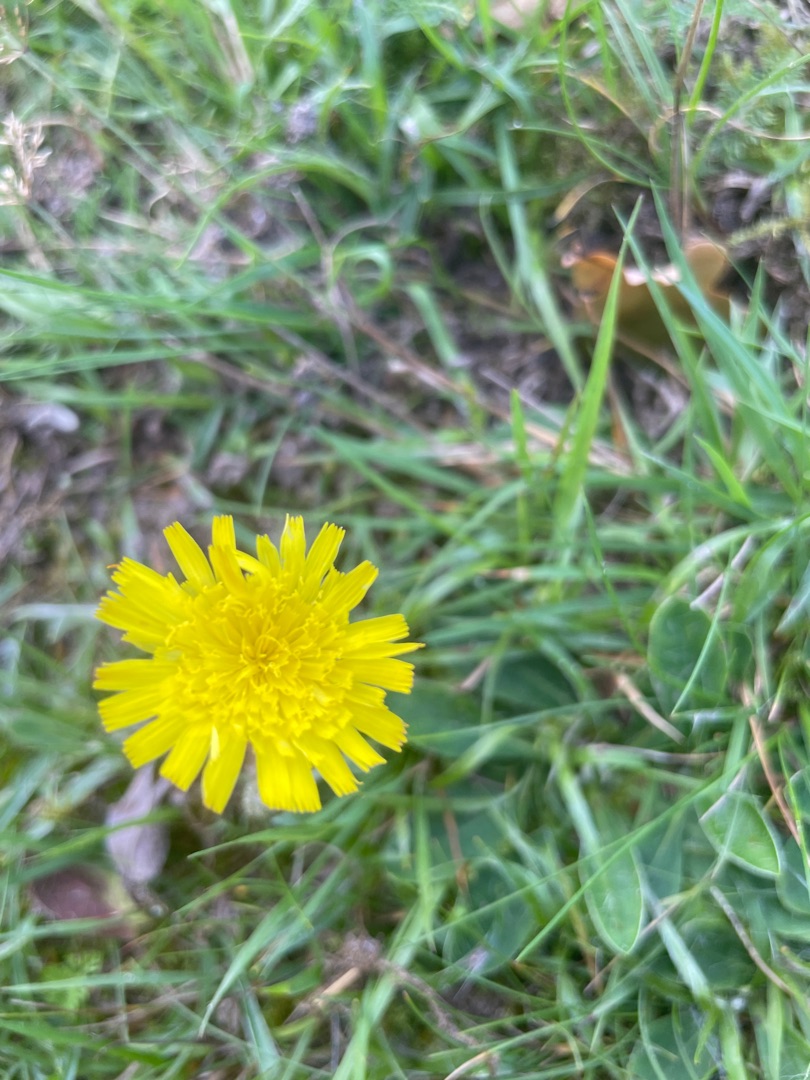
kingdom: Plantae
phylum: Tracheophyta
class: Magnoliopsida
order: Asterales
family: Asteraceae
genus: Pilosella
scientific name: Pilosella officinarum
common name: Håret høgeurt
